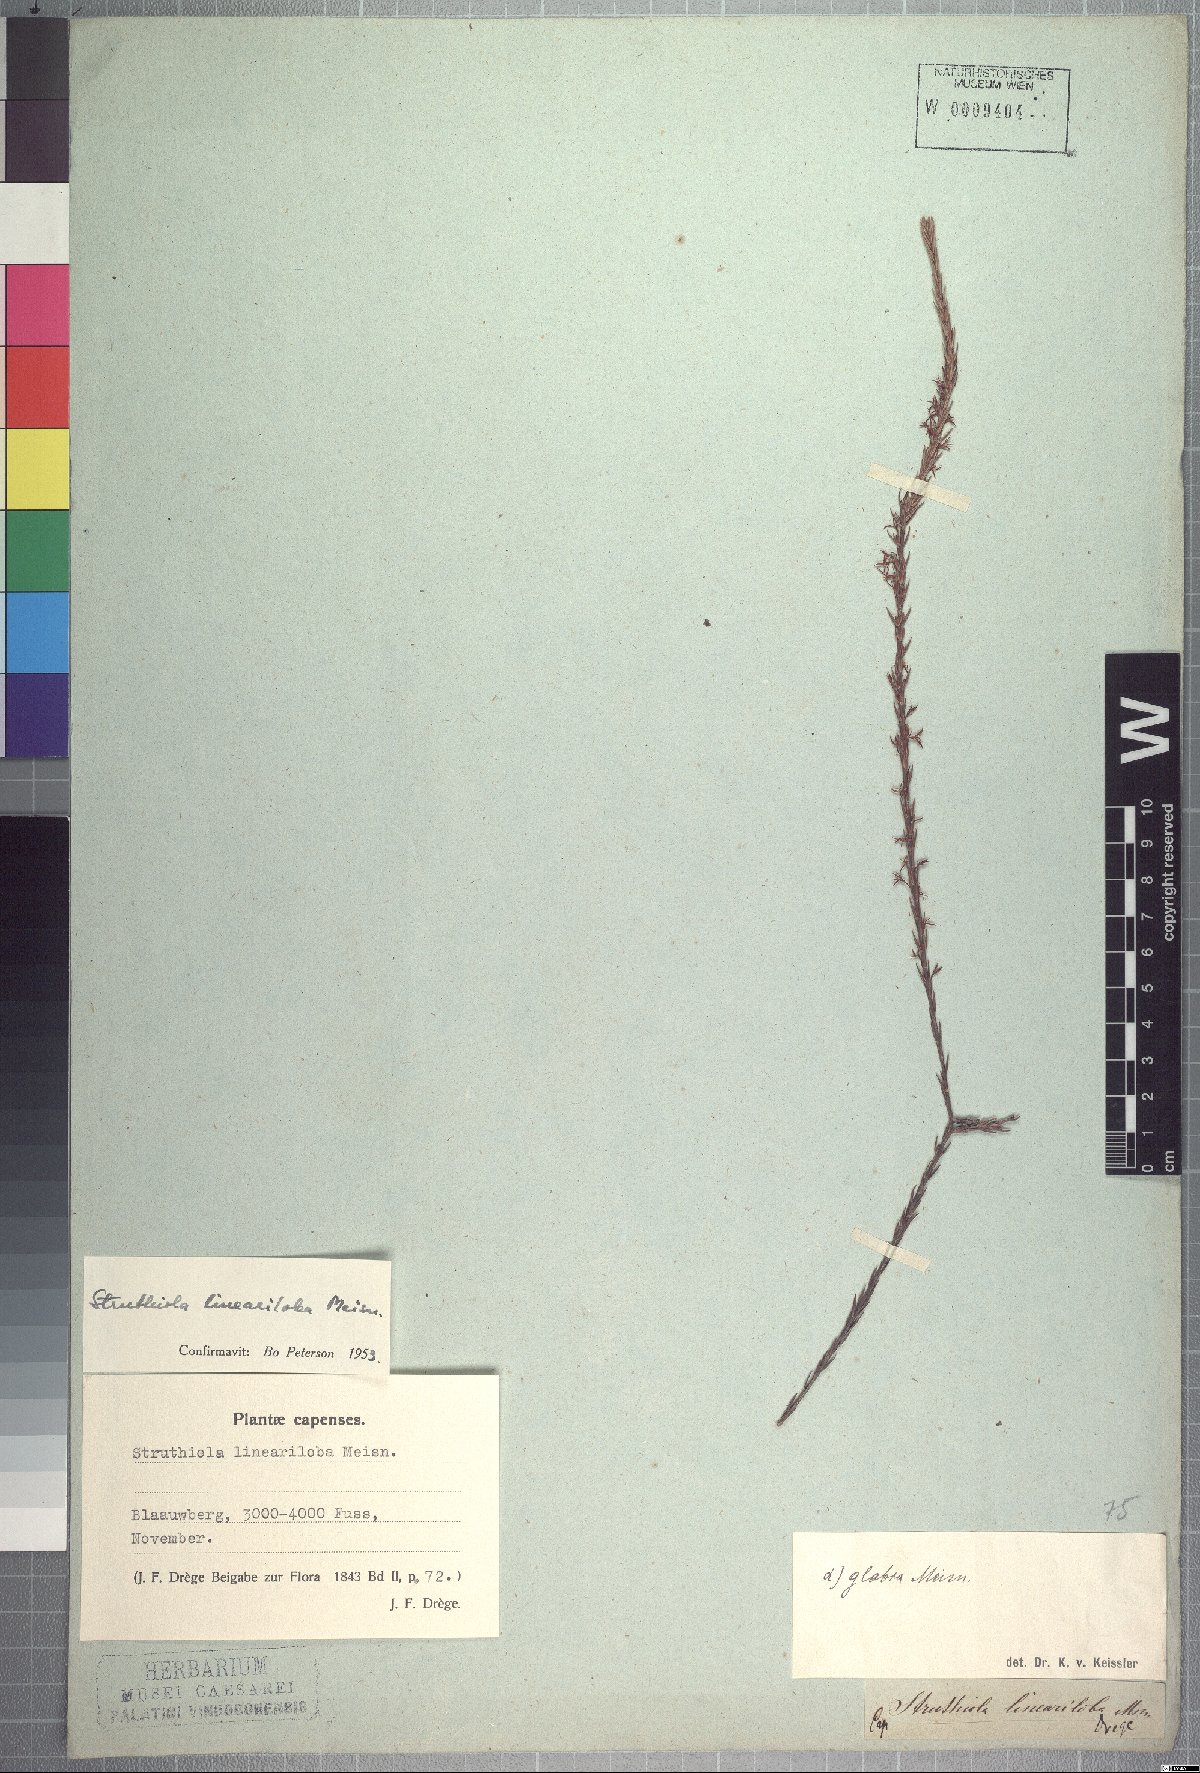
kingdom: Plantae
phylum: Tracheophyta
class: Magnoliopsida
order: Malvales
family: Thymelaeaceae
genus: Struthiola
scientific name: Struthiola lineariloba
